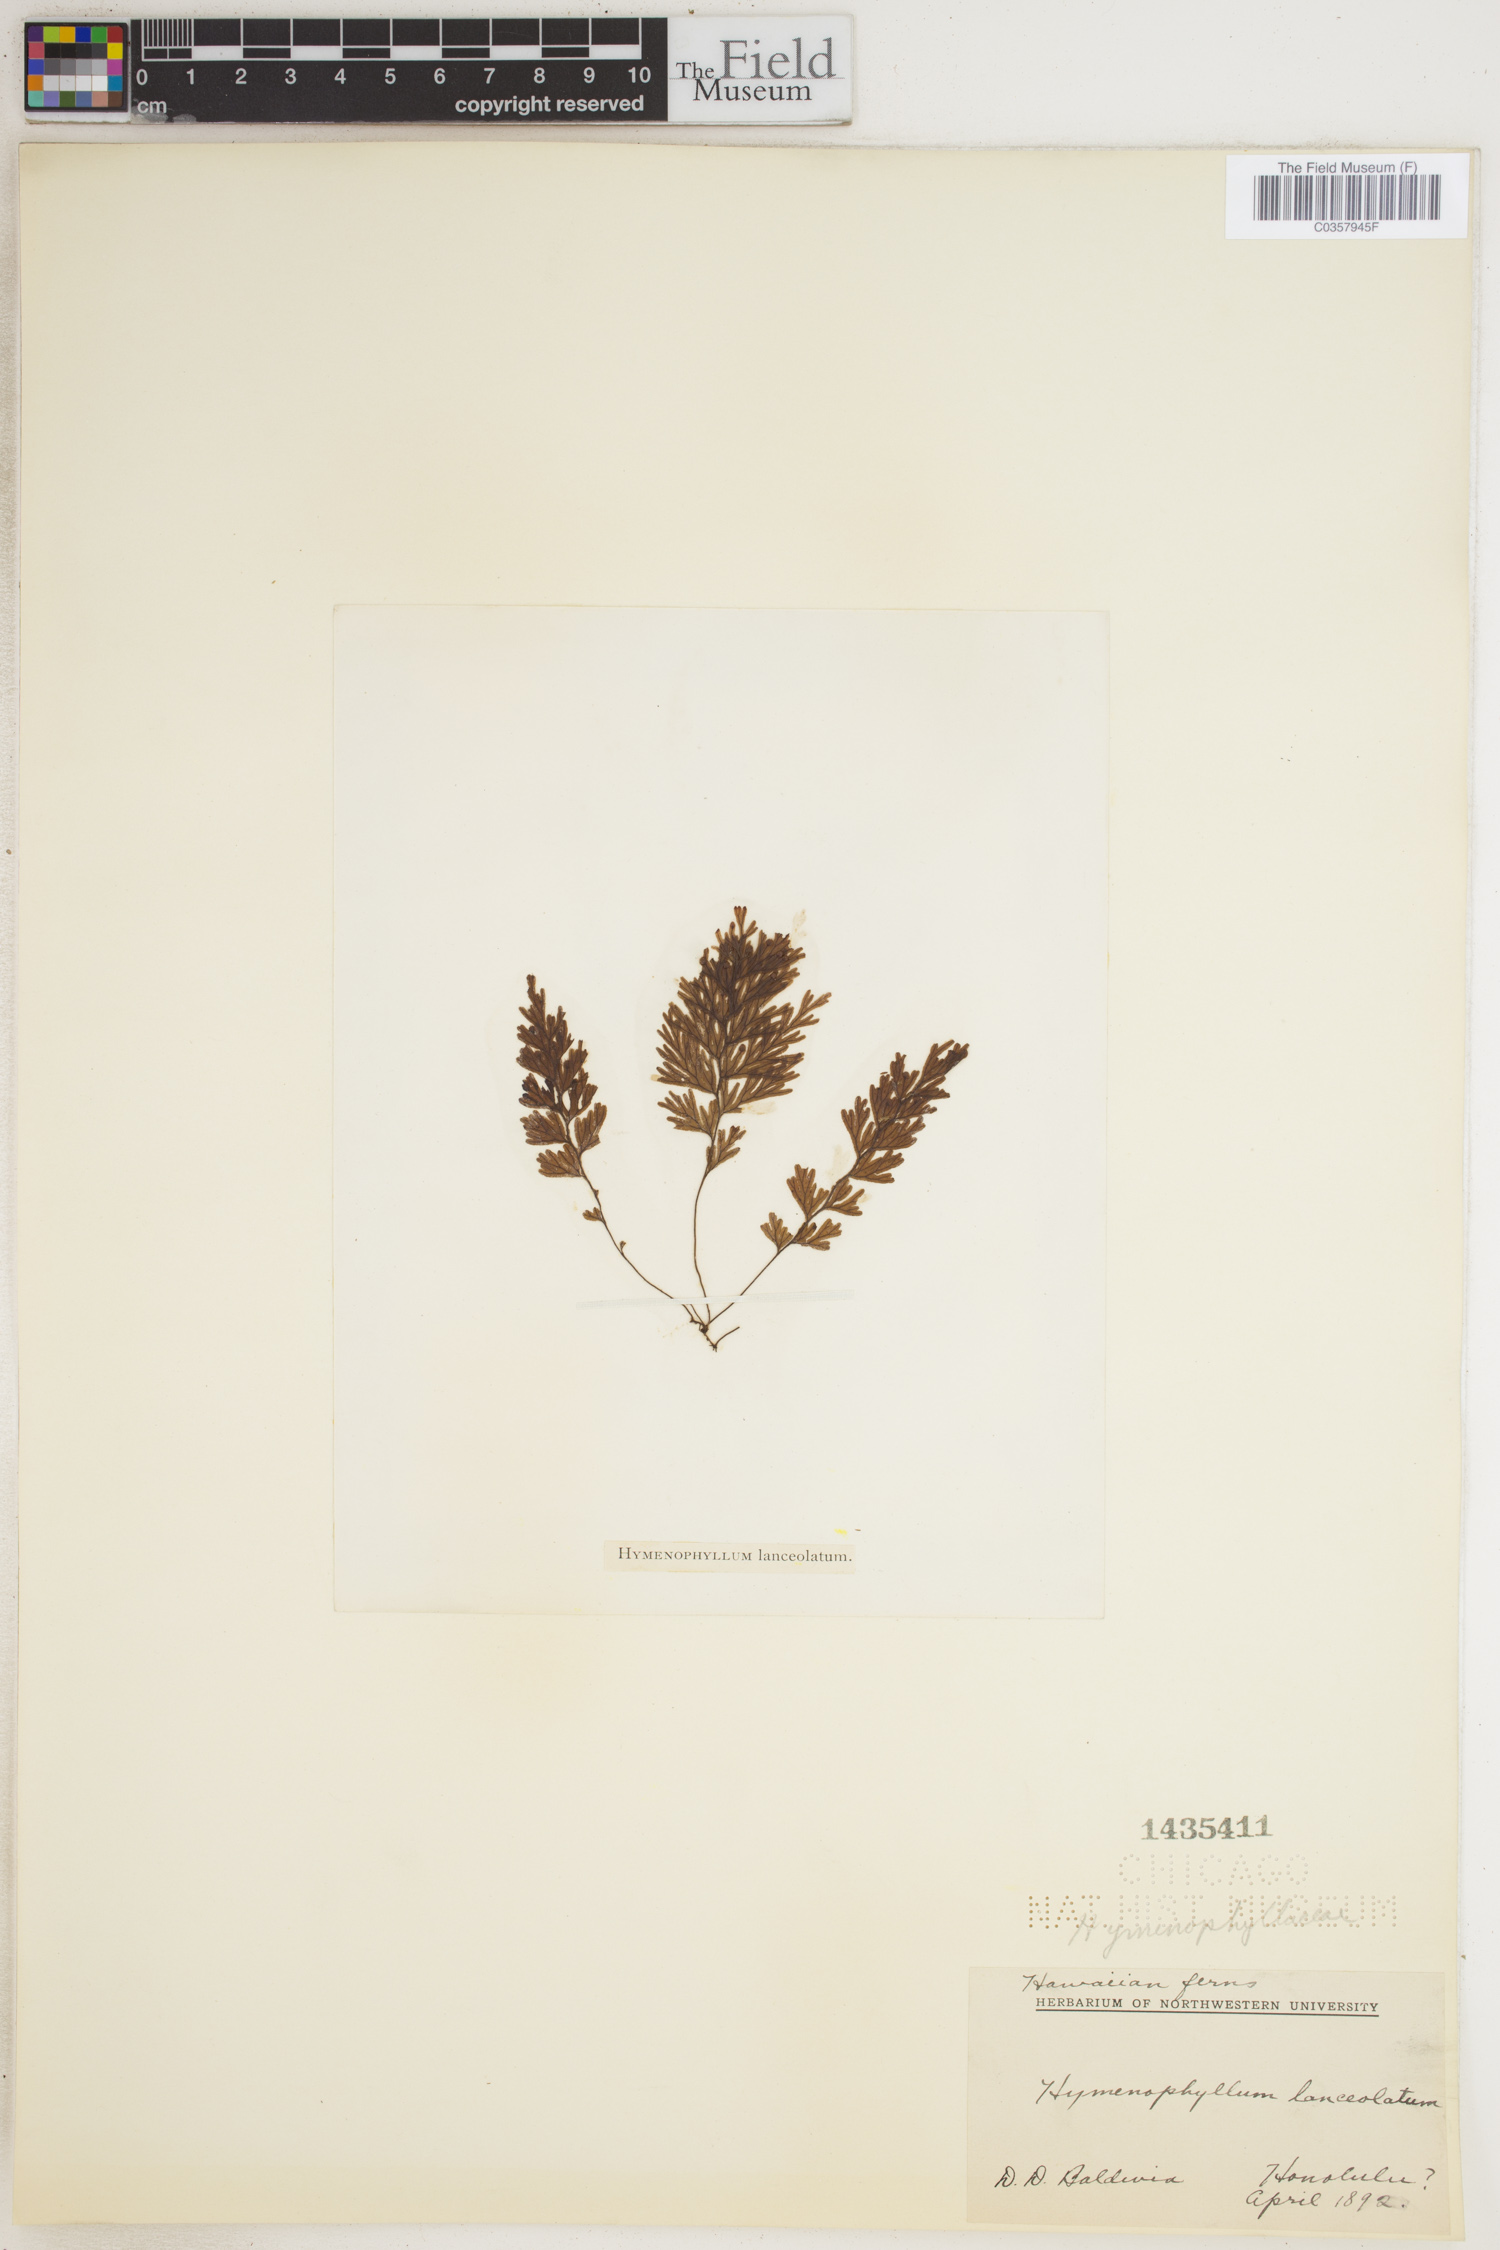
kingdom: Plantae
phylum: Tracheophyta
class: Polypodiopsida
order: Hymenophyllales
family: Hymenophyllaceae
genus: Hymenophyllum
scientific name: Hymenophyllum lanceolatum
